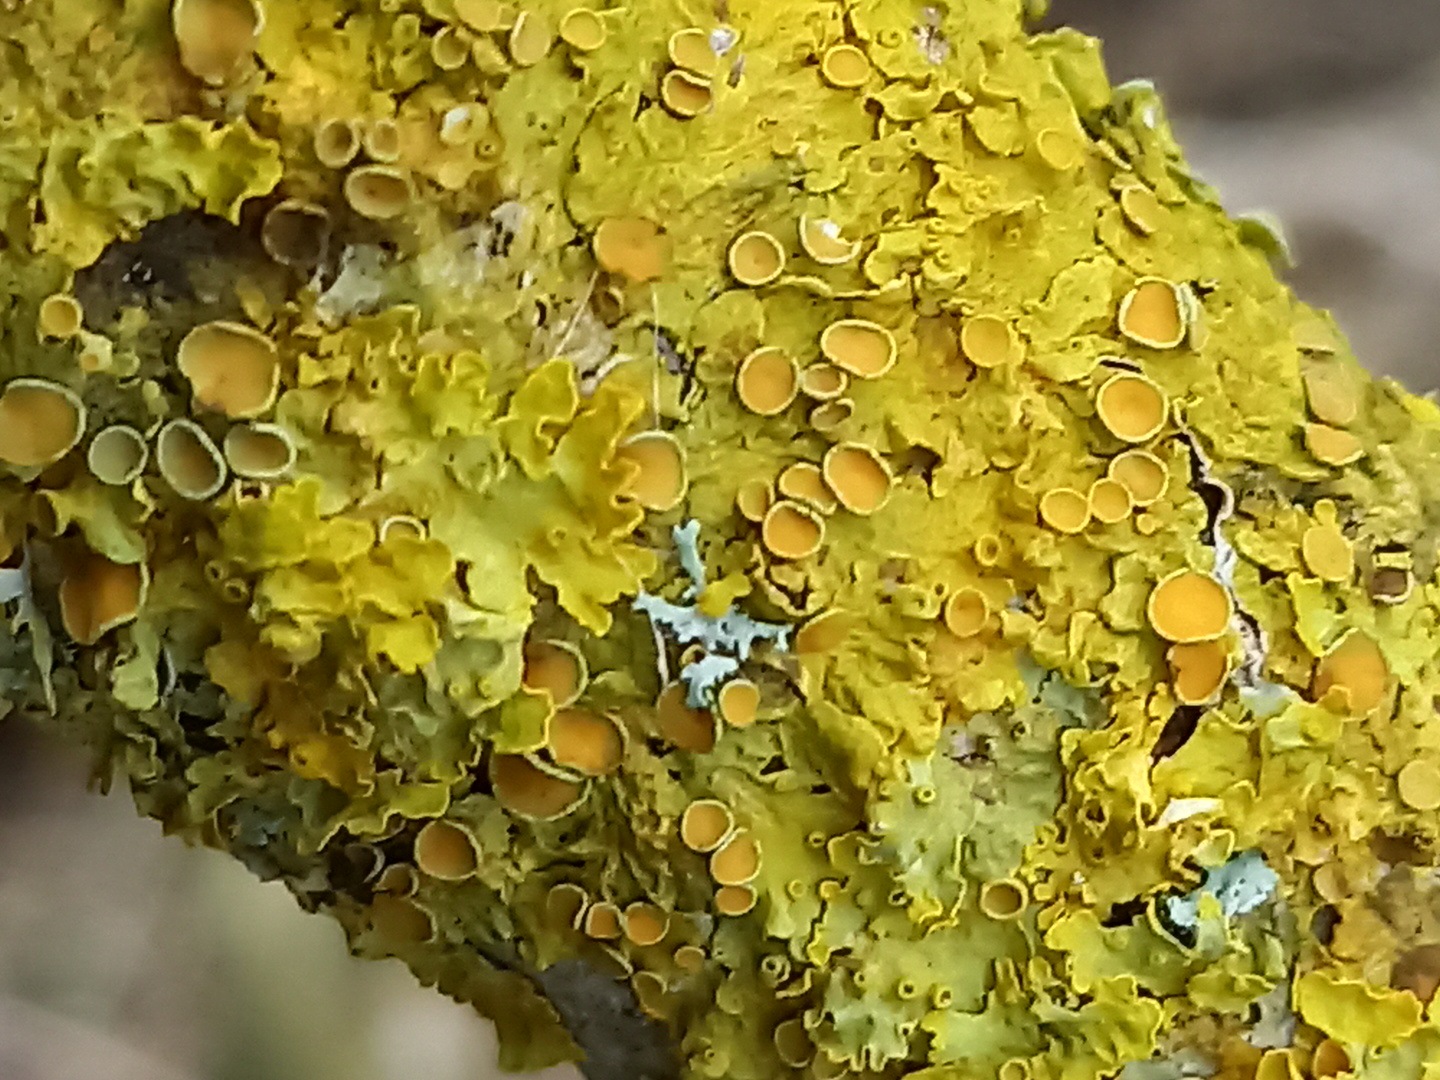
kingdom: Fungi
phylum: Ascomycota
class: Lecanoromycetes
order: Teloschistales
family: Teloschistaceae
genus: Xanthoria
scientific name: Xanthoria parietina
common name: almindelig væggelav
